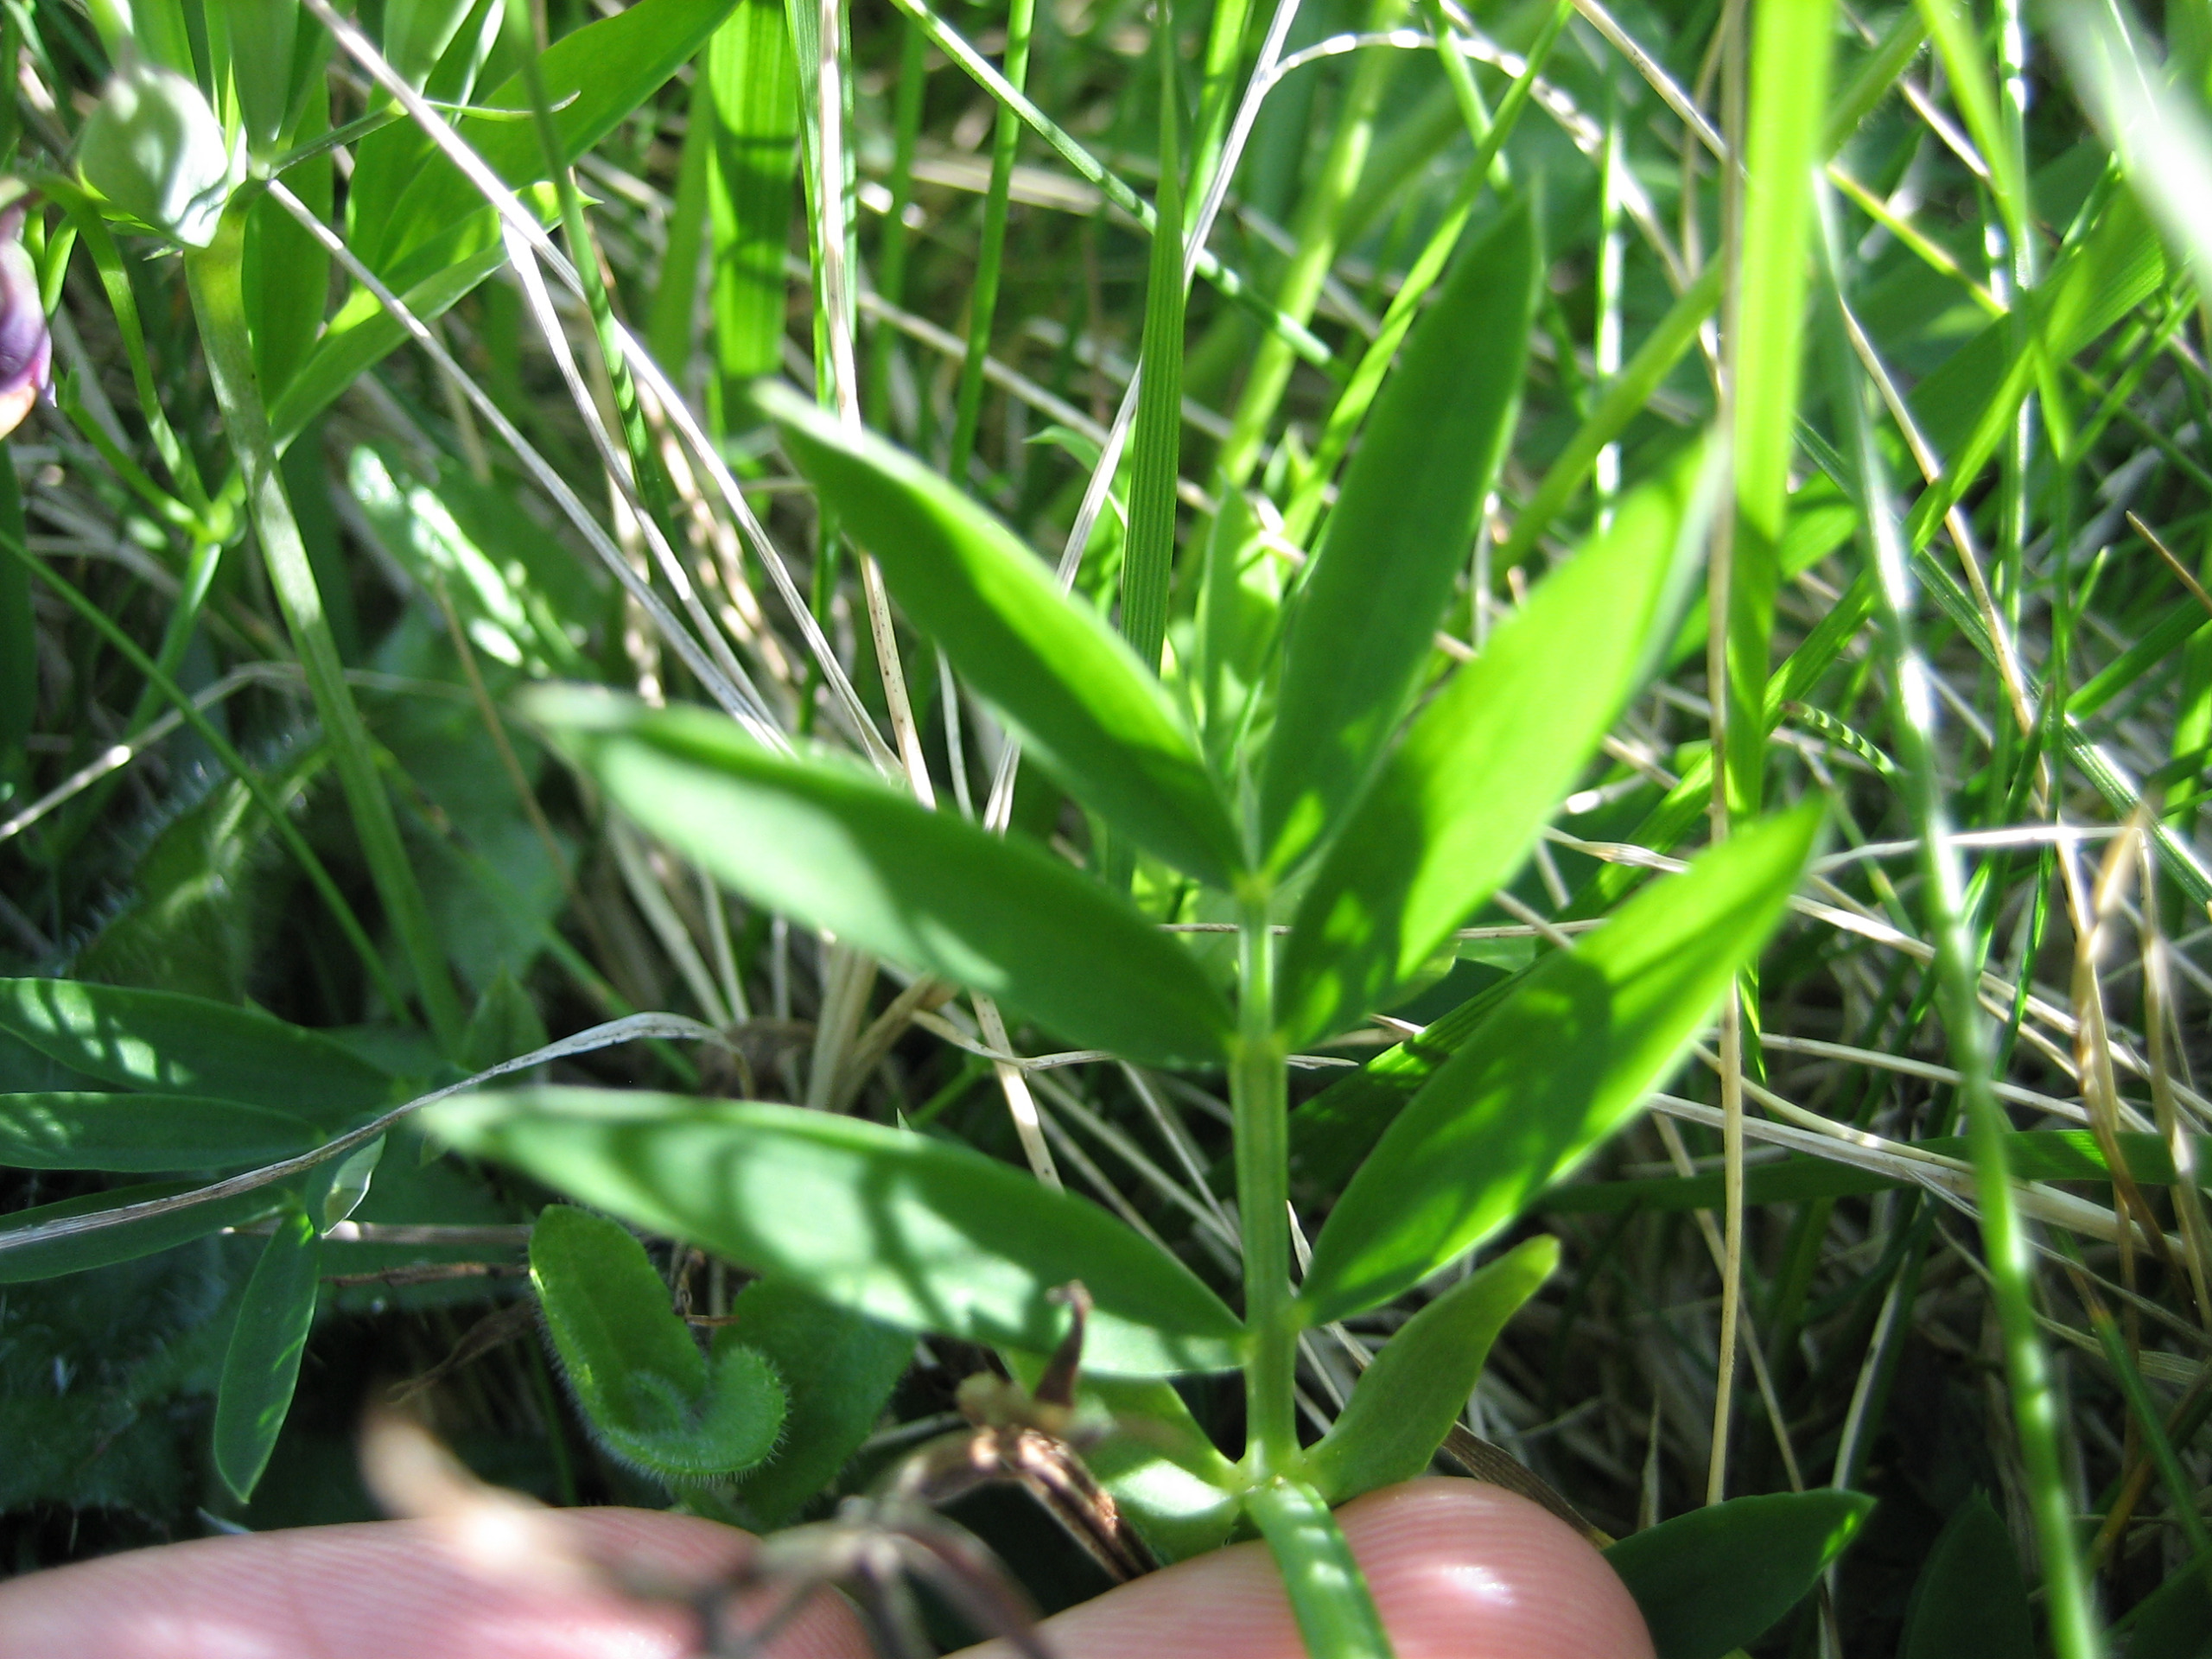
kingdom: Plantae
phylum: Tracheophyta
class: Magnoliopsida
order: Fabales
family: Fabaceae
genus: Lathyrus
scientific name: Lathyrus linifolius
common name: Krat-fladbælg
